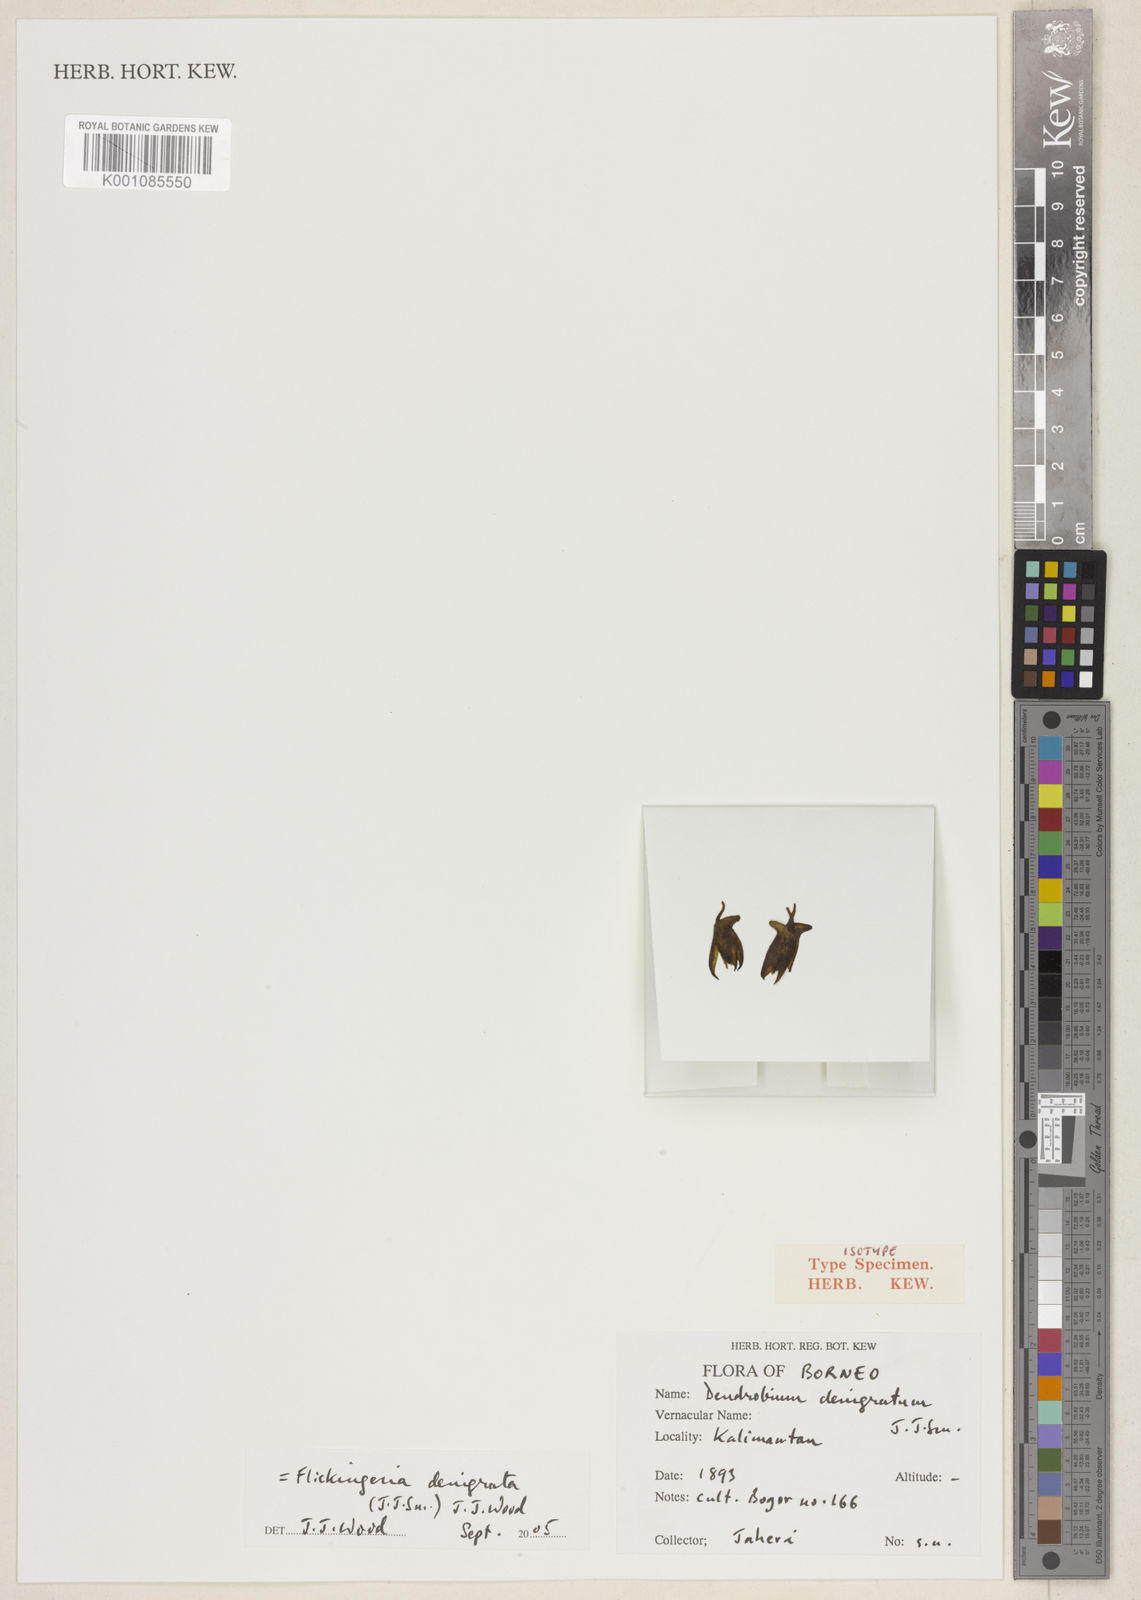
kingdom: Plantae
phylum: Tracheophyta
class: Liliopsida
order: Asparagales
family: Orchidaceae
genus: Dendrobium
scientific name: Dendrobium denigratum
